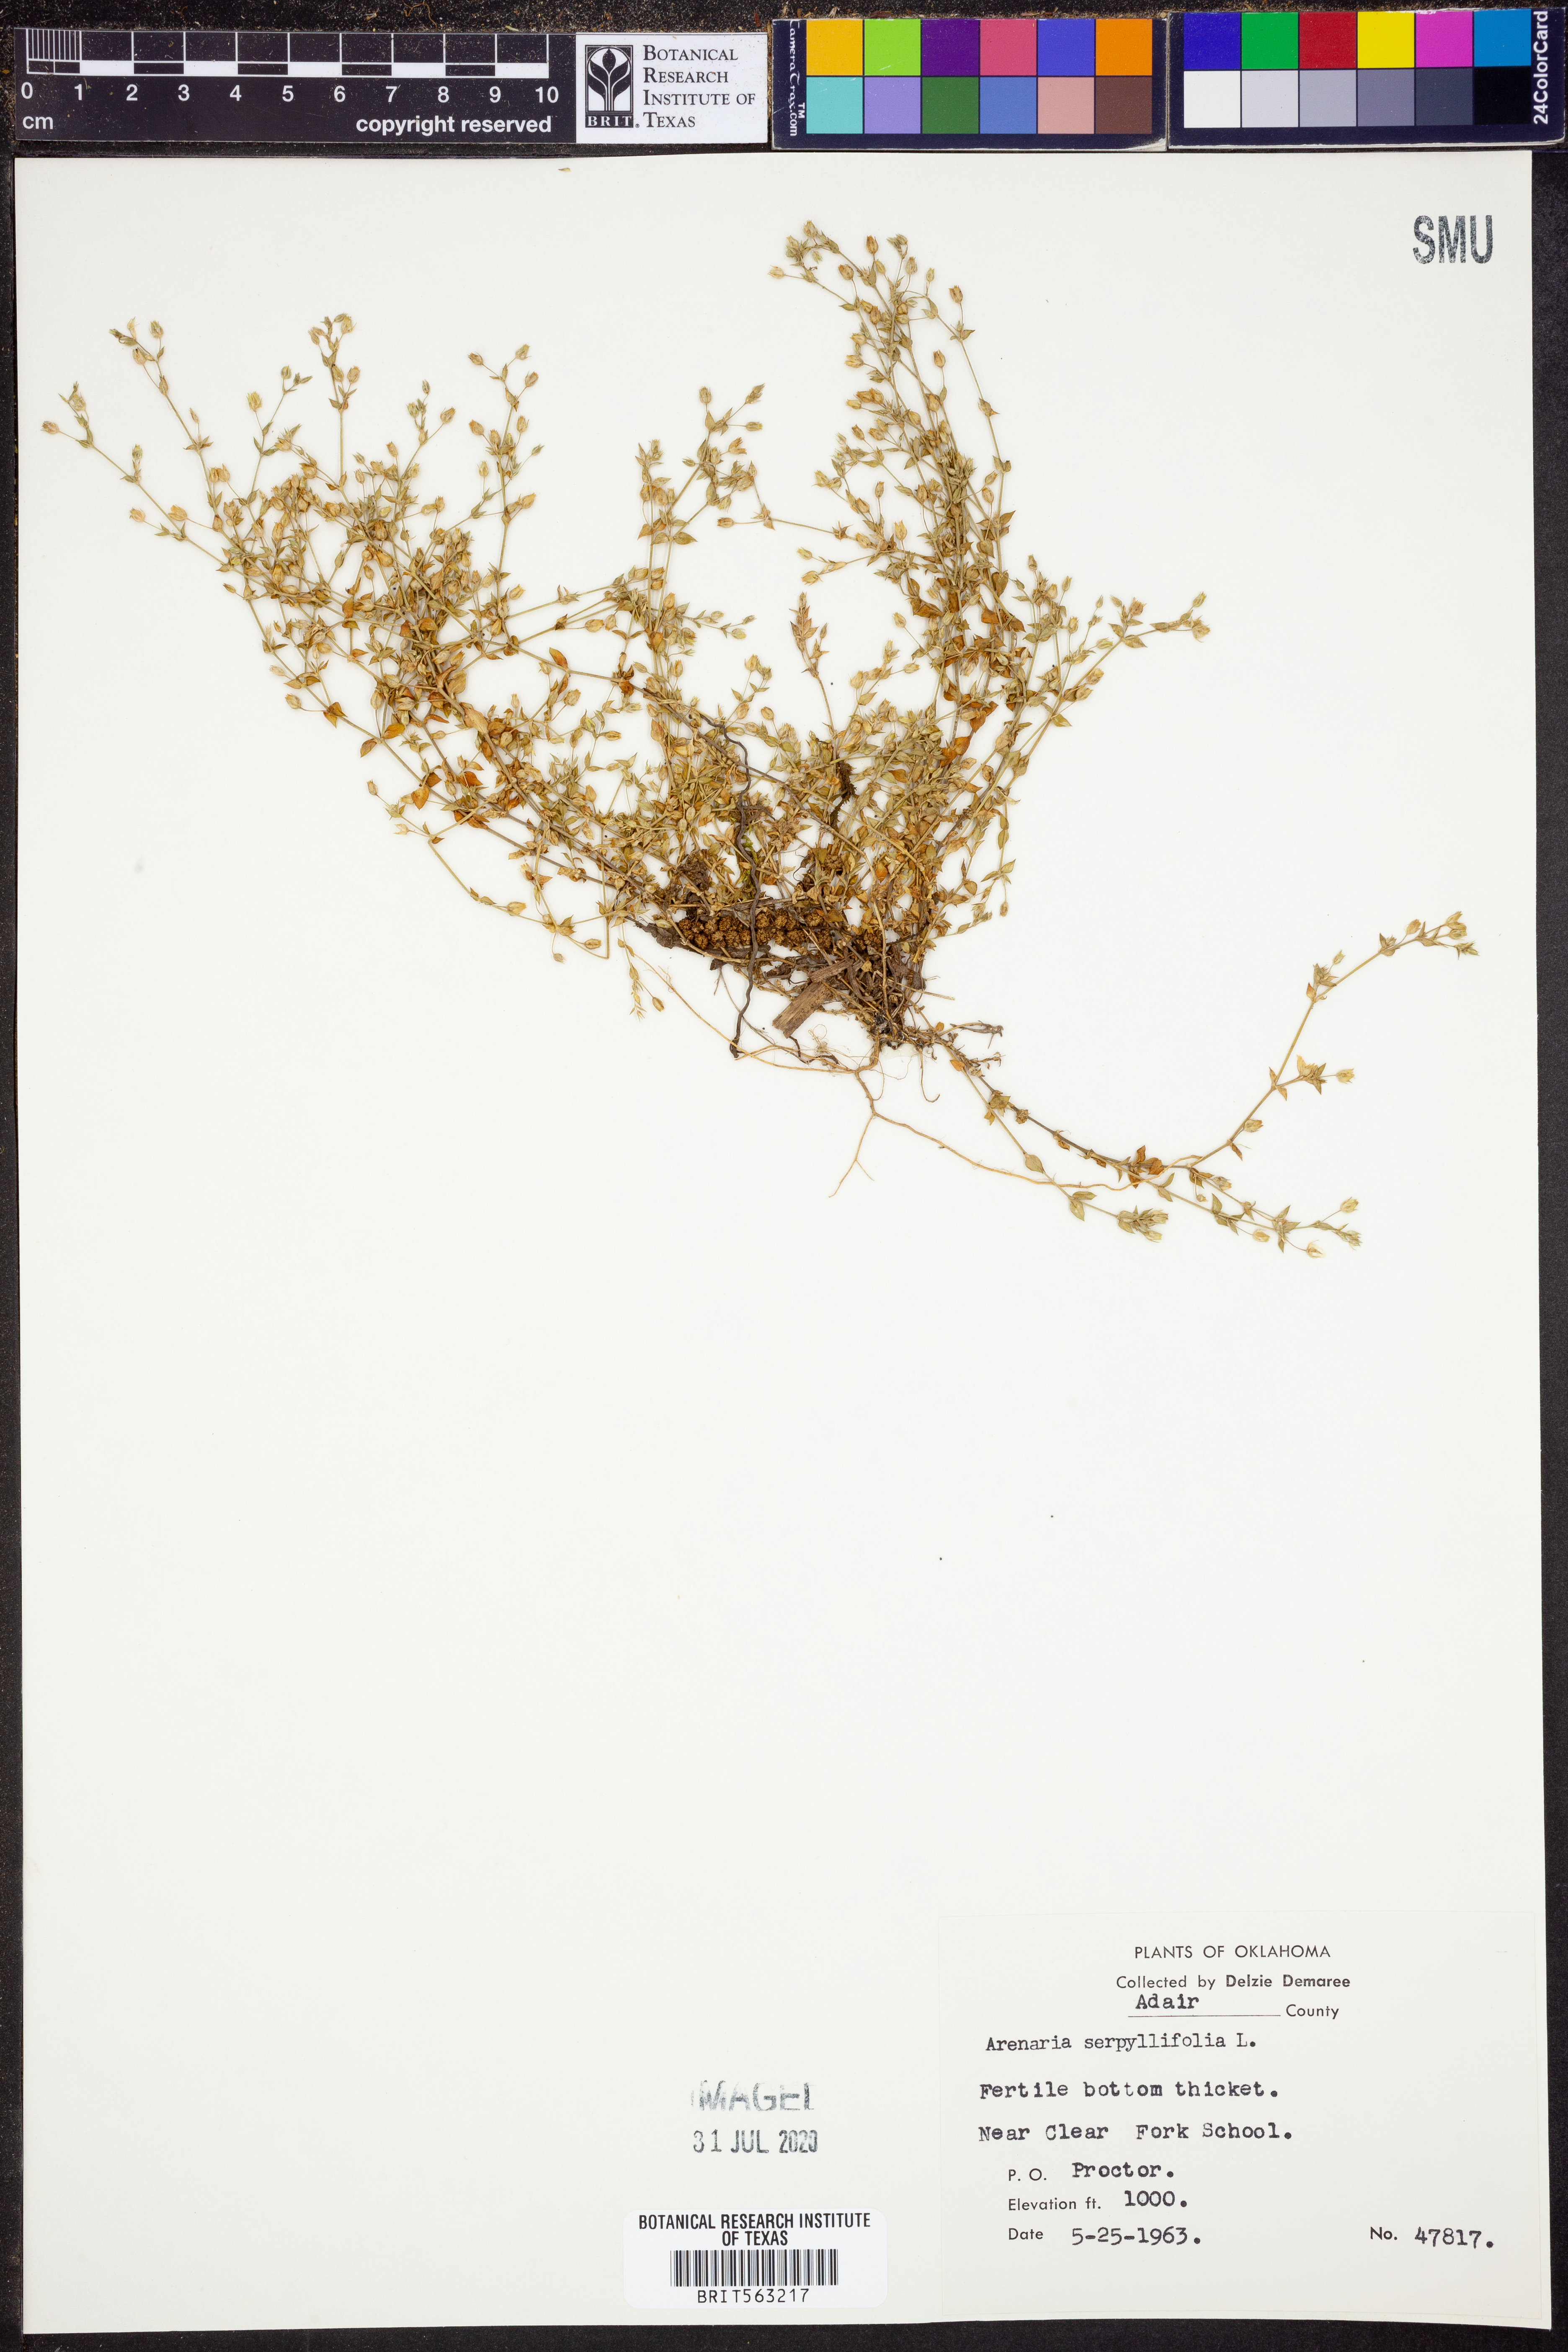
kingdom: Plantae
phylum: Tracheophyta
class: Magnoliopsida
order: Caryophyllales
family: Caryophyllaceae
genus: Arenaria
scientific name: Arenaria serpyllifolia
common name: Thyme-leaved sandwort
